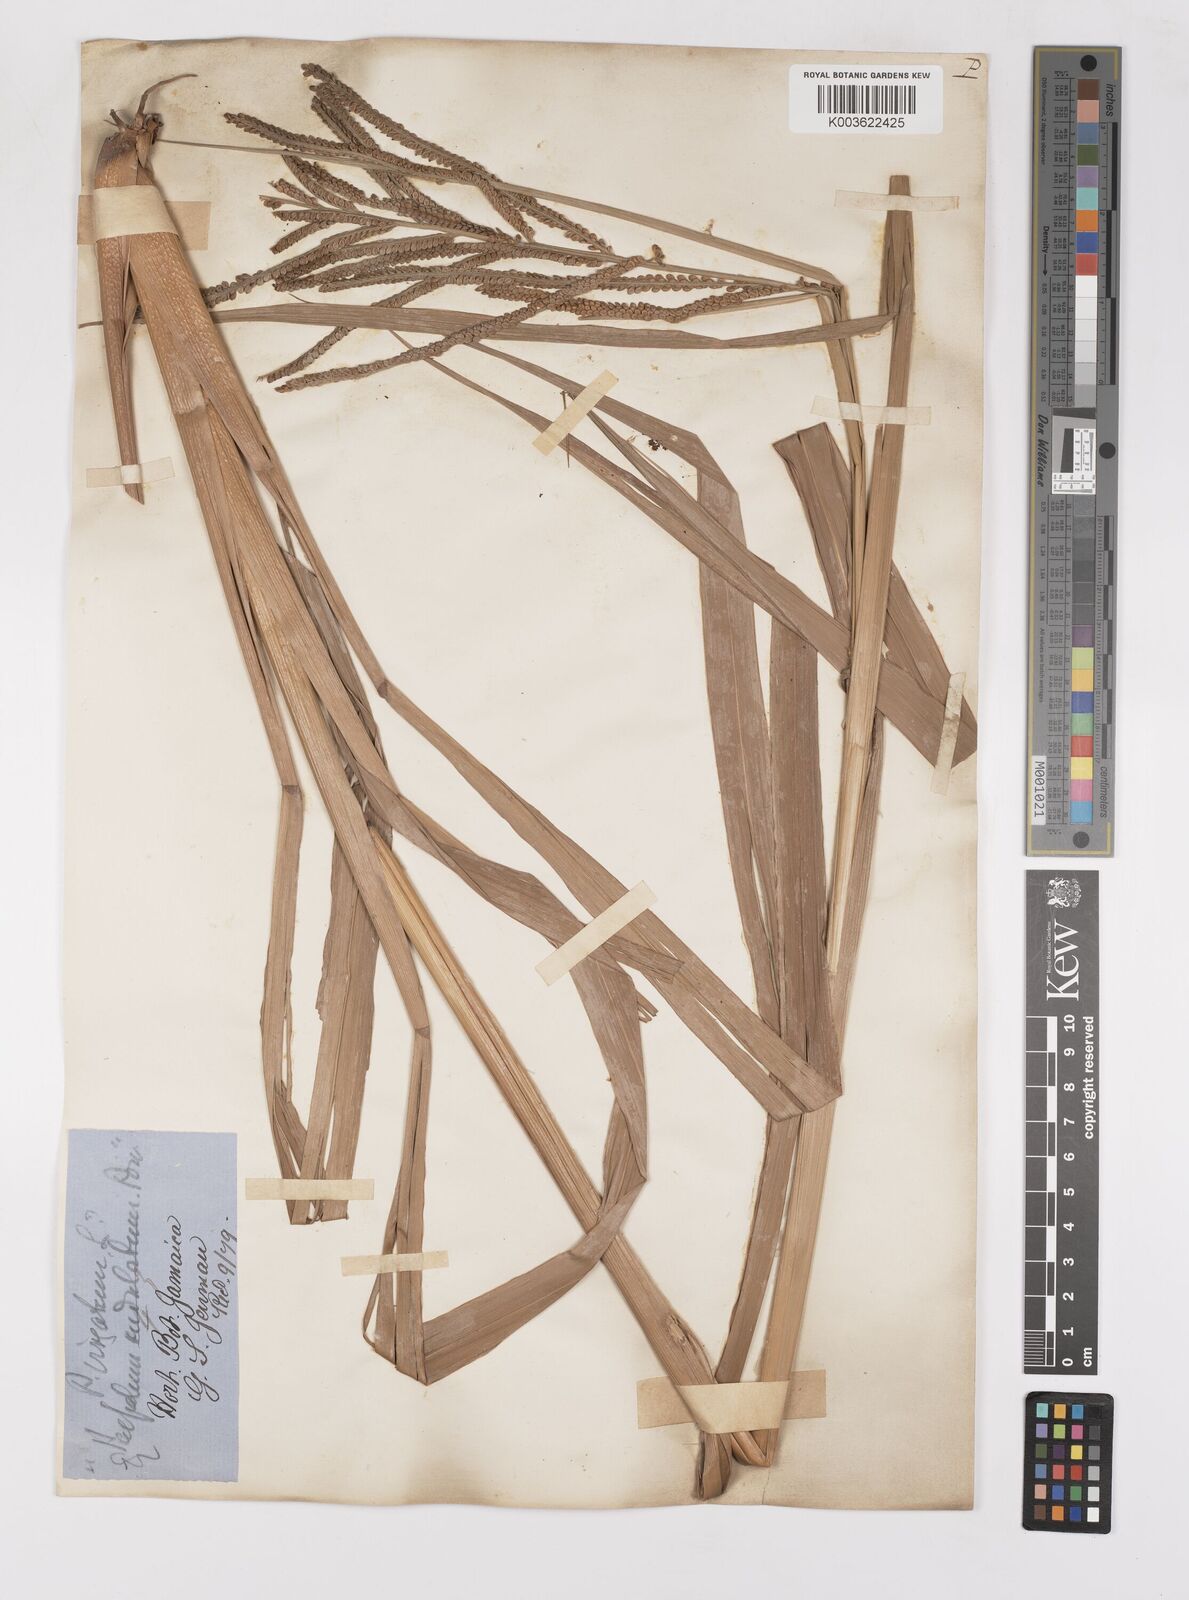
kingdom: Plantae
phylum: Tracheophyta
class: Liliopsida
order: Poales
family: Poaceae
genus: Paspalum
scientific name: Paspalum virgatum
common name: Talquezal
